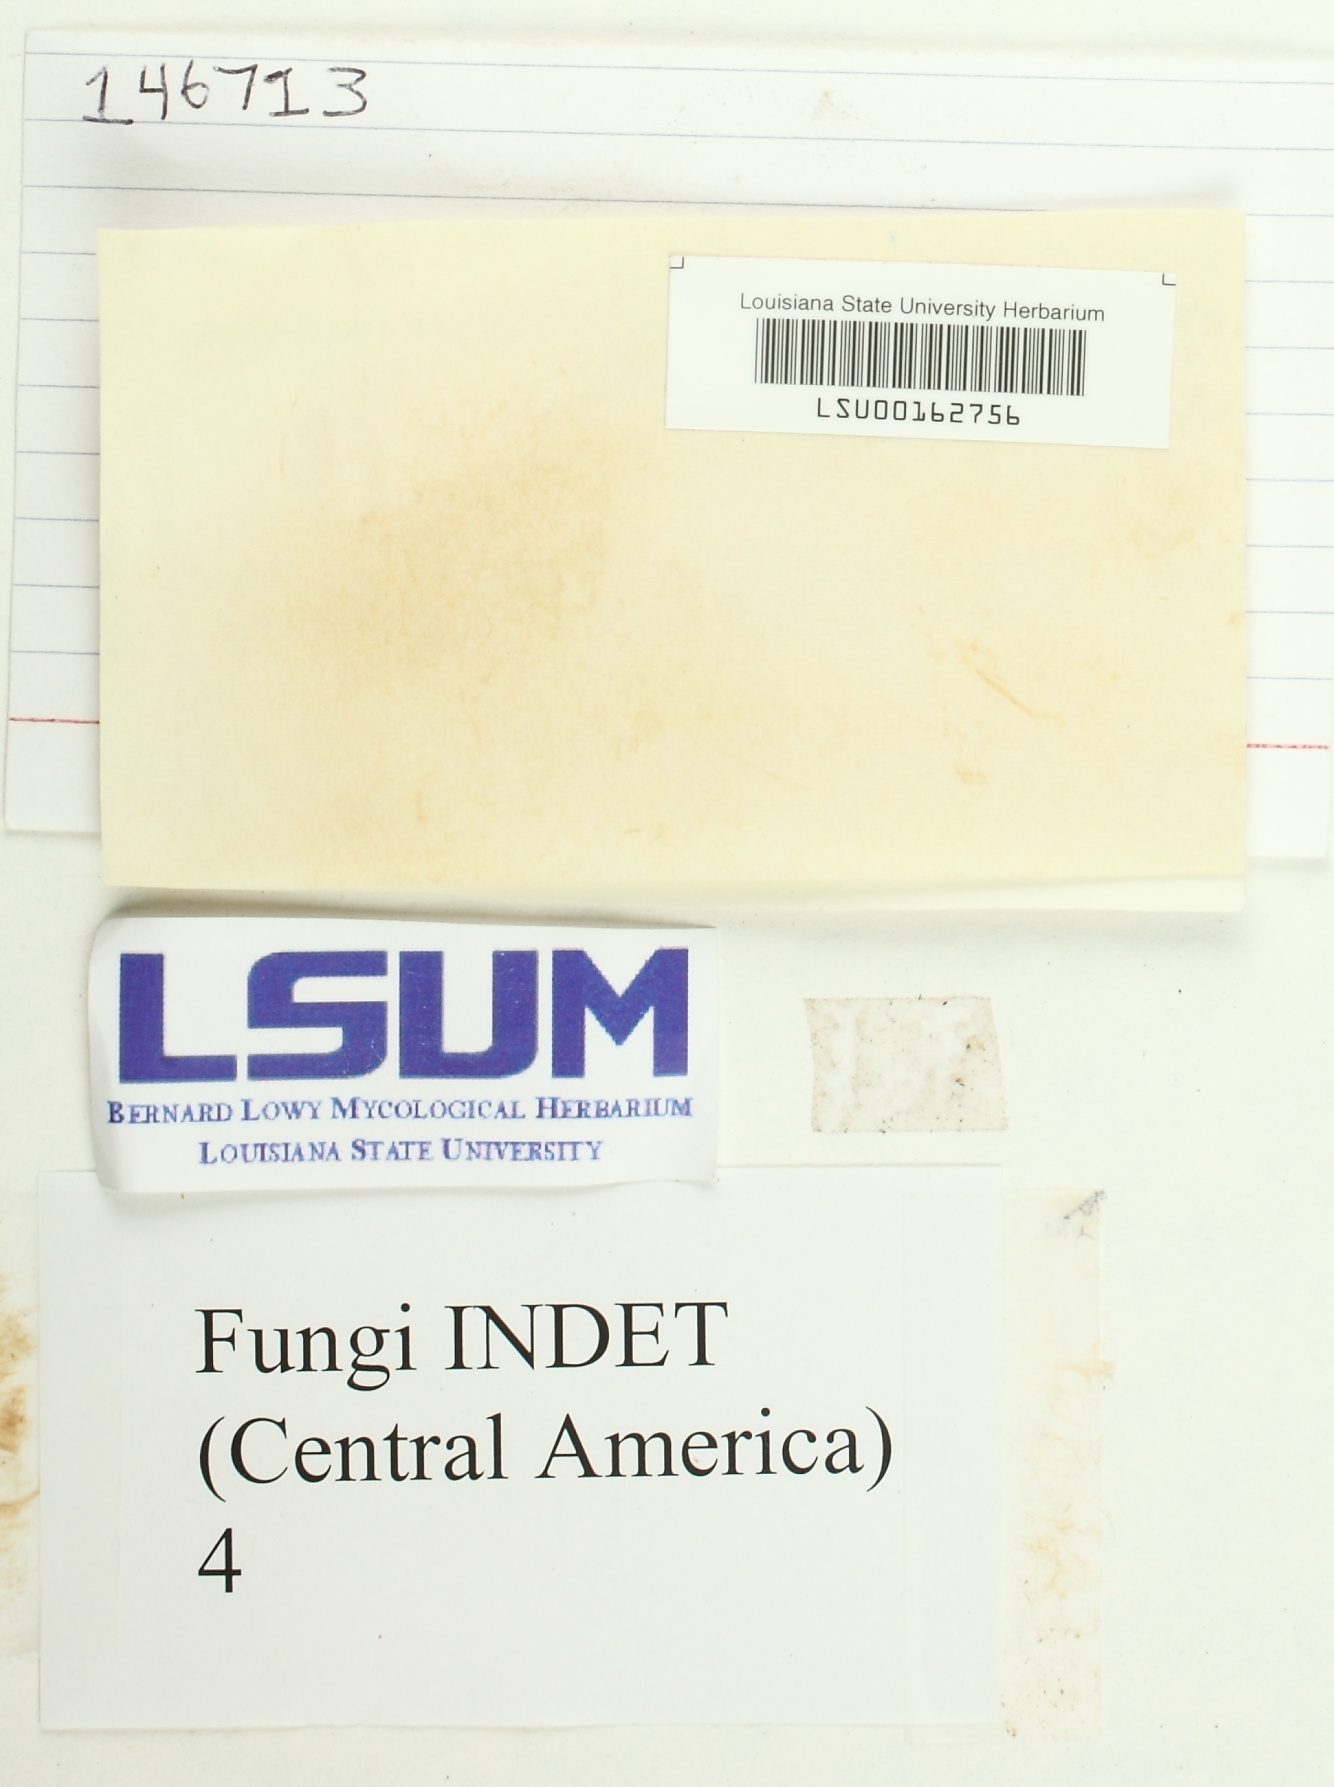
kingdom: Fungi
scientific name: Fungi
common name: Fungi
